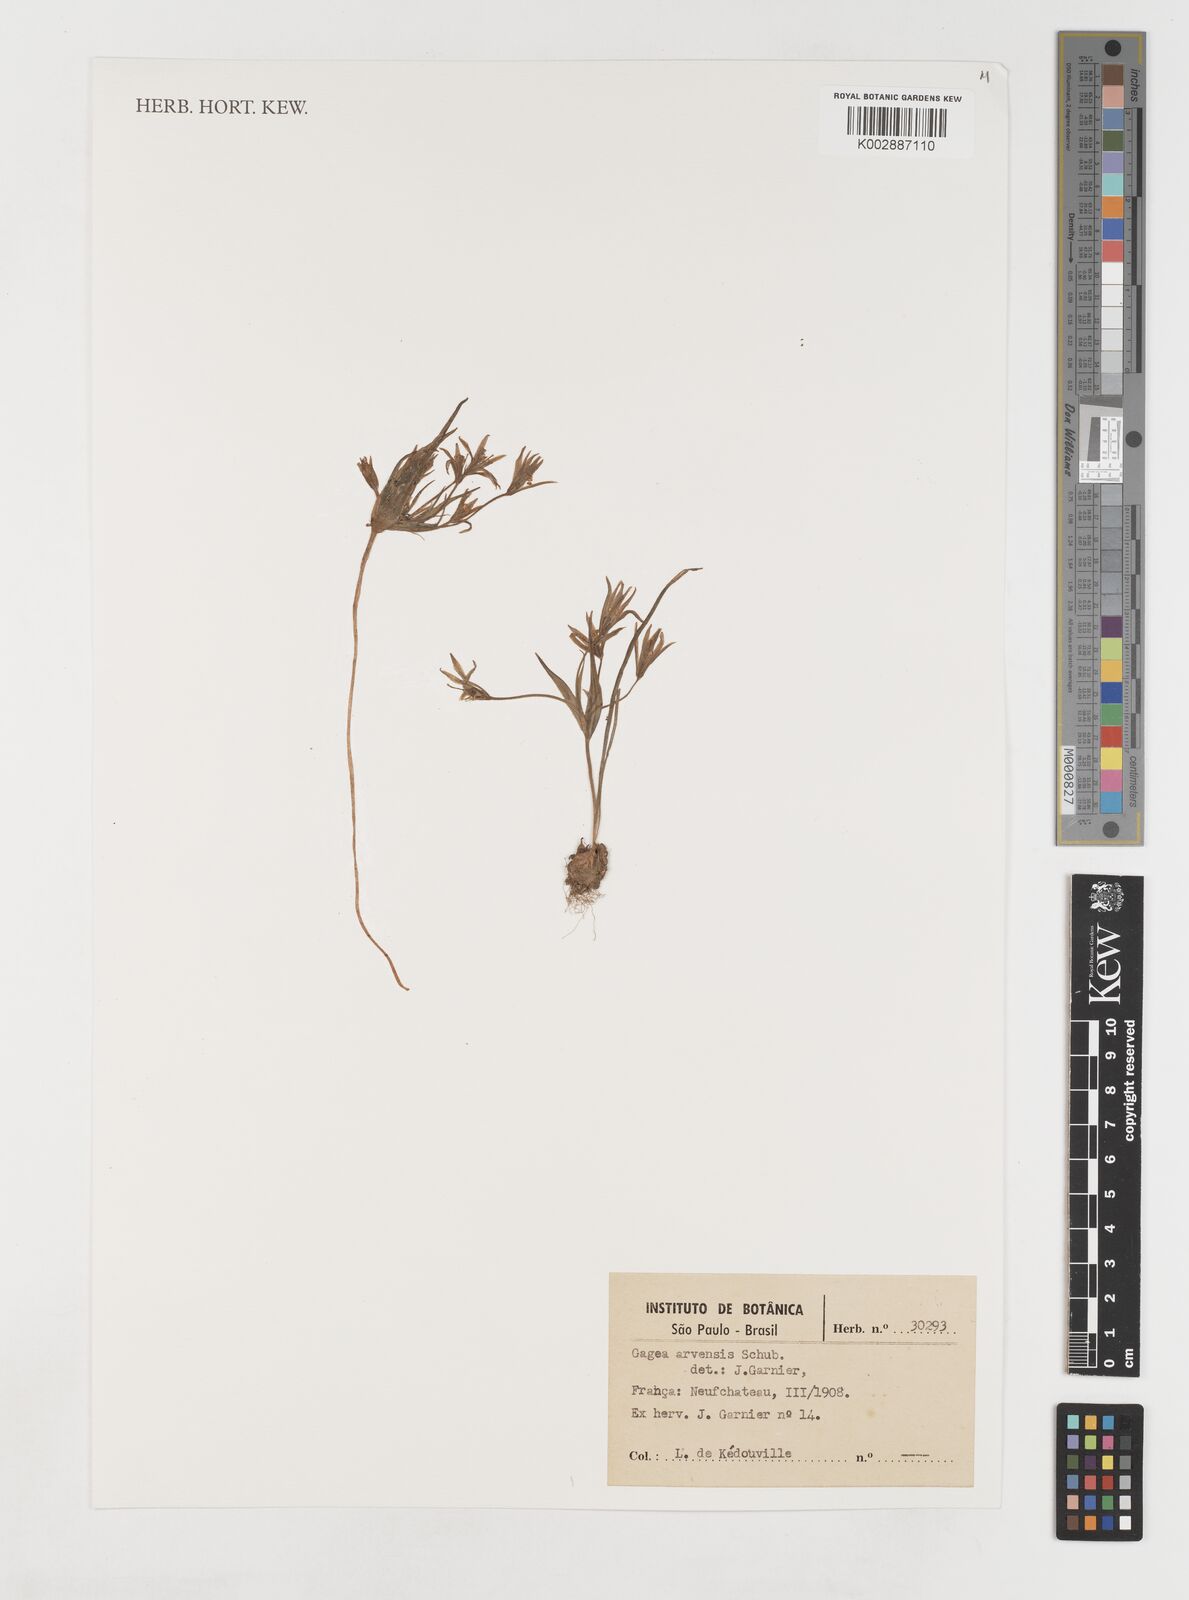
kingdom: Plantae
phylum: Tracheophyta
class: Liliopsida
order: Liliales
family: Liliaceae
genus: Gagea
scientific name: Gagea minima
